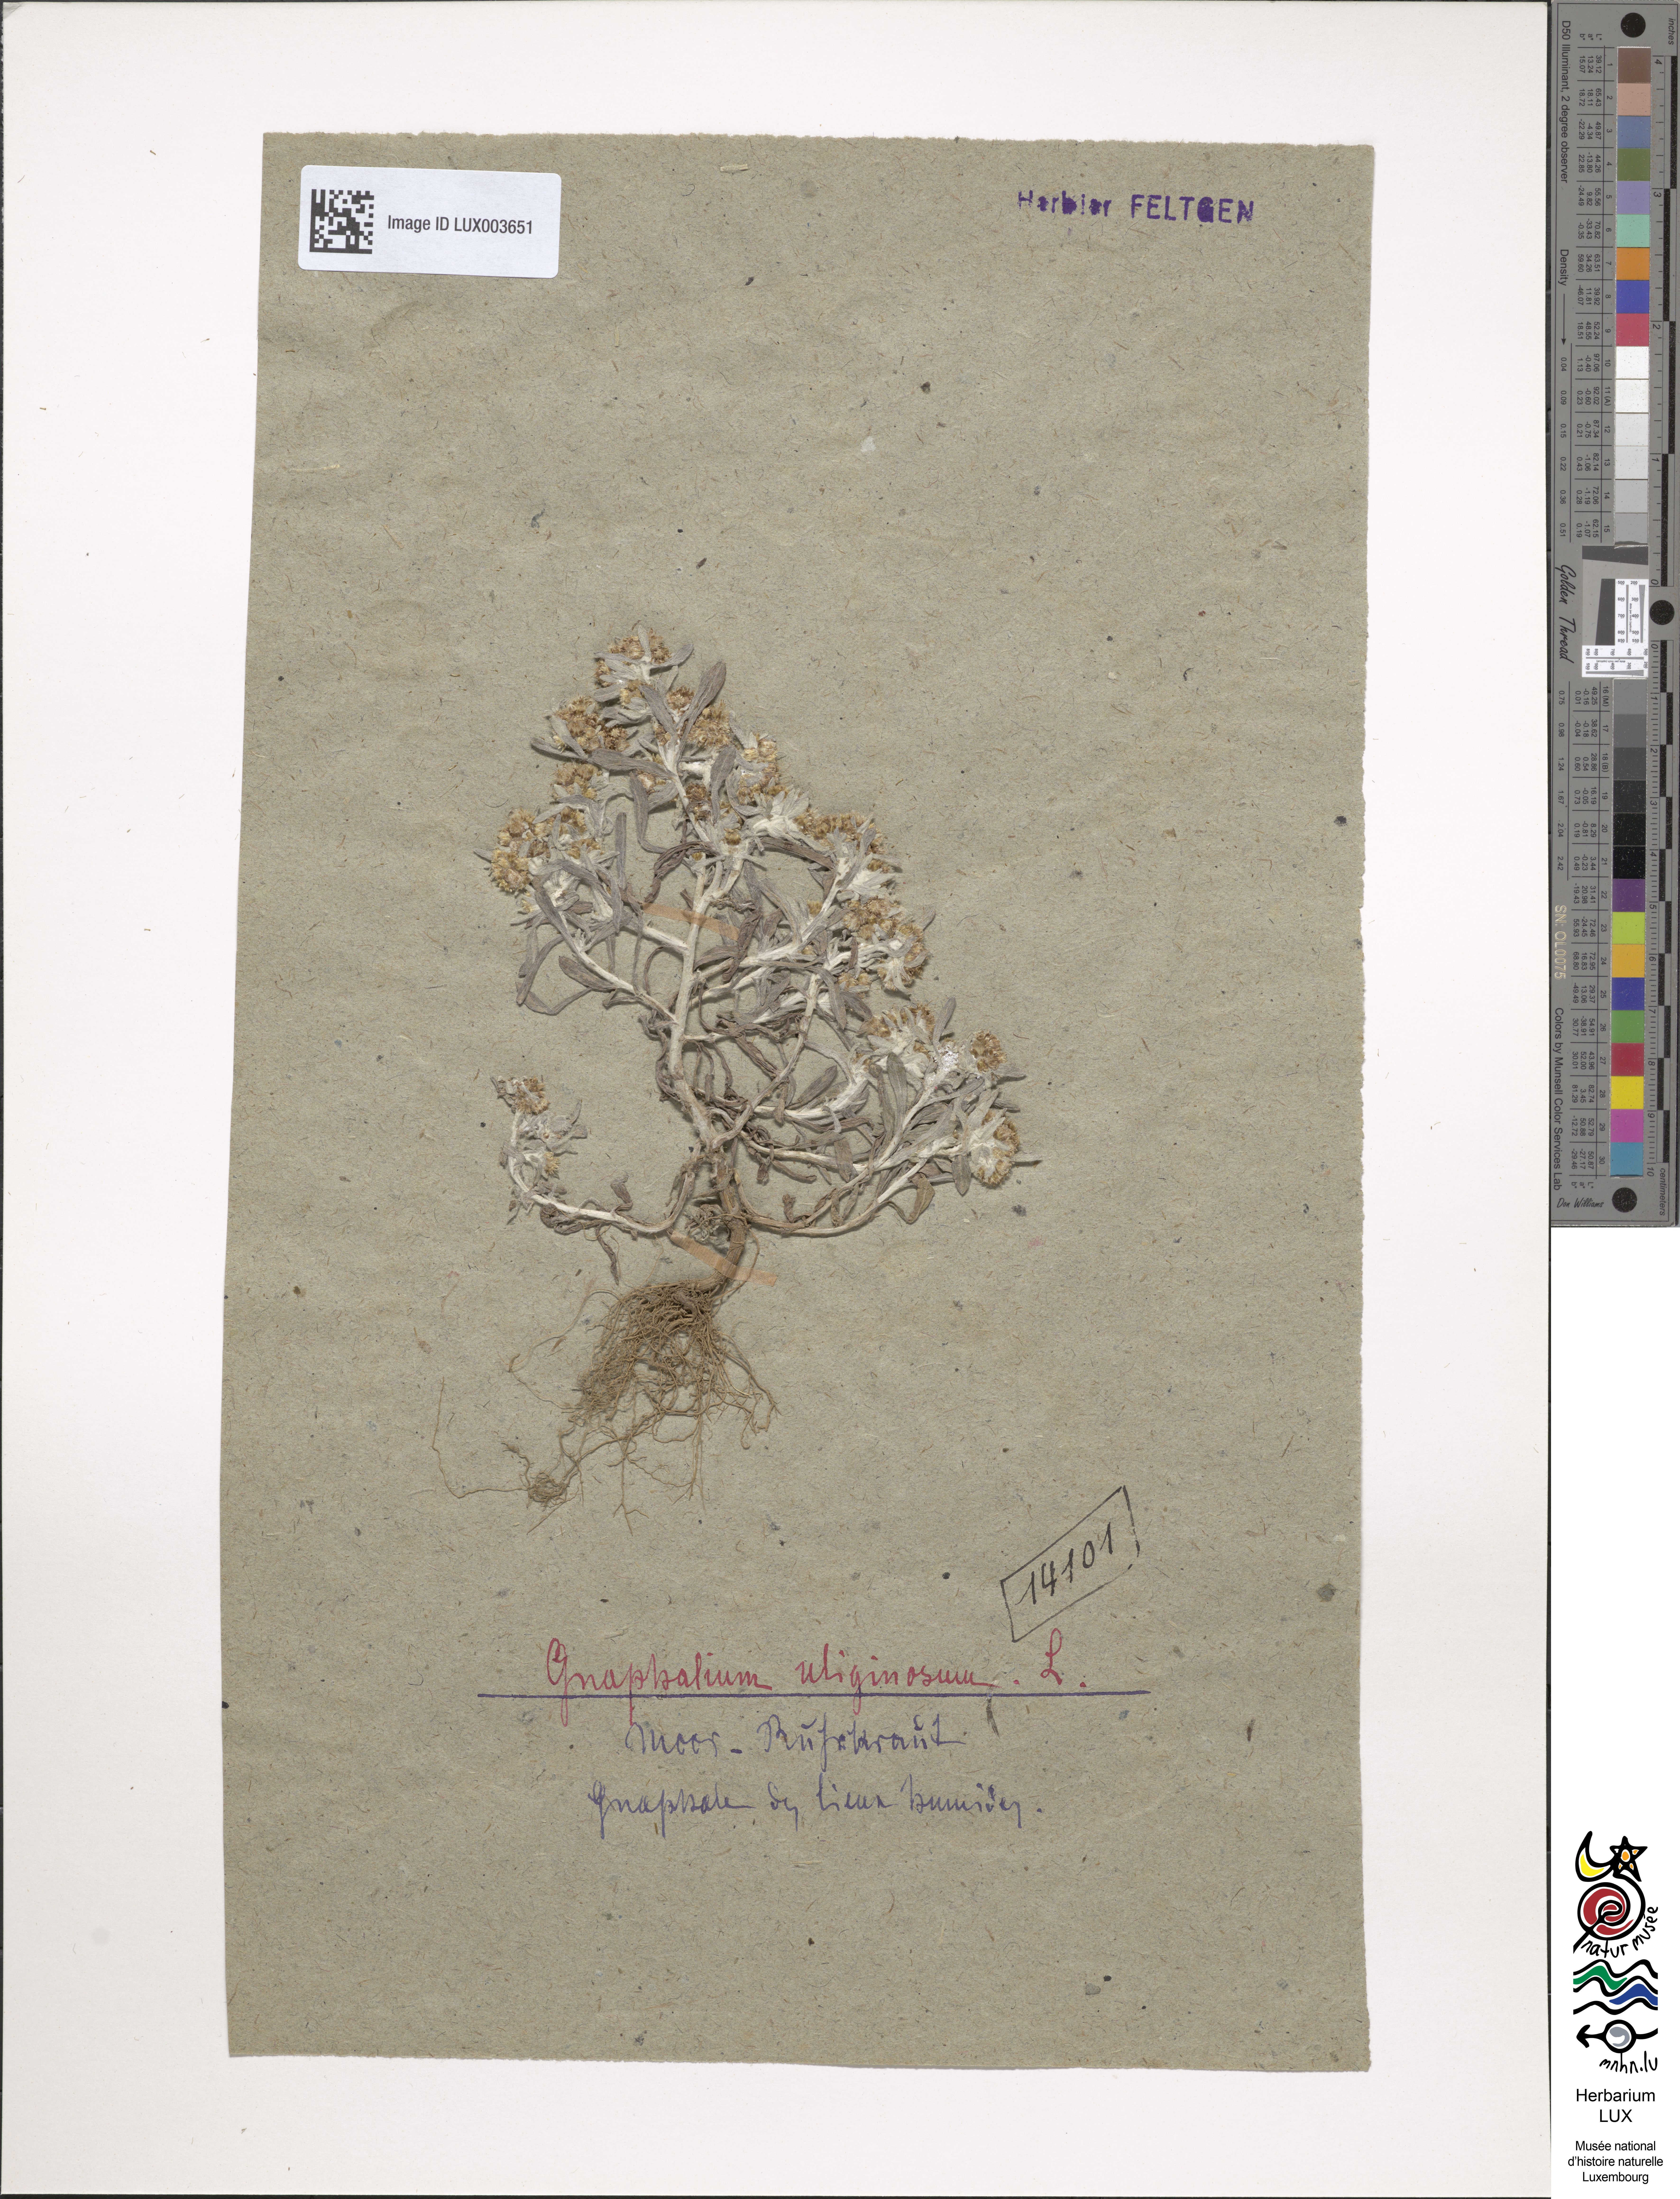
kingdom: Plantae
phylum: Tracheophyta
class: Magnoliopsida
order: Asterales
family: Asteraceae
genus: Gnaphalium
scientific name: Gnaphalium uliginosum
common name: Marsh cudweed
